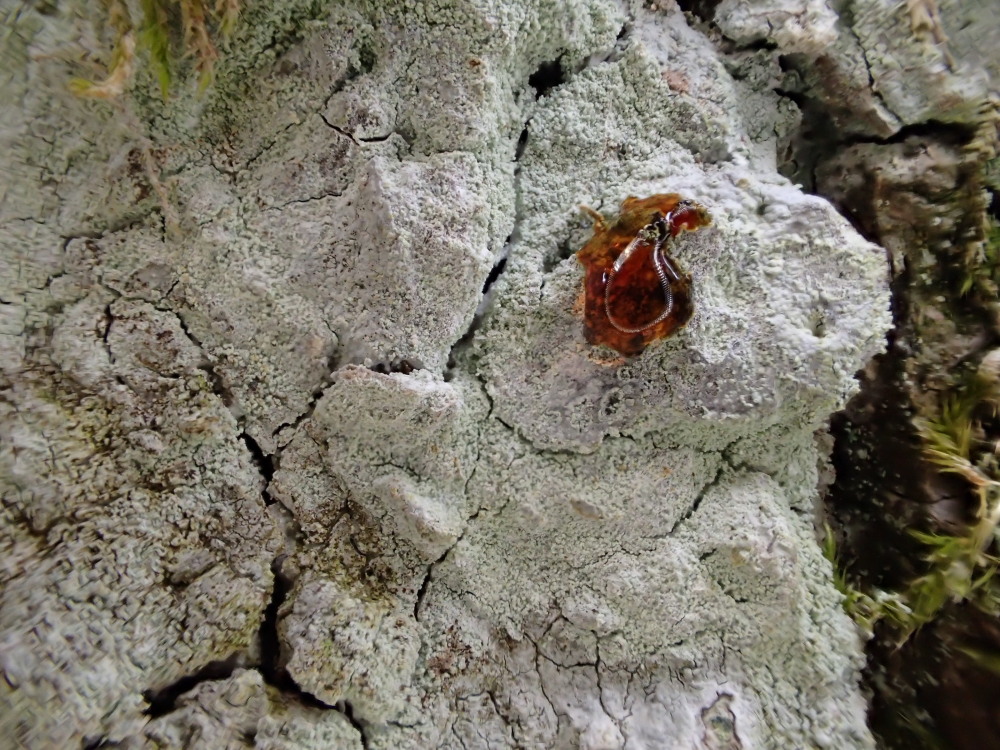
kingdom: Fungi
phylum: Ascomycota
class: Lecanoromycetes
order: Ostropales
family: Phlyctidaceae
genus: Phlyctis
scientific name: Phlyctis argena
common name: almindelig sølvlav
